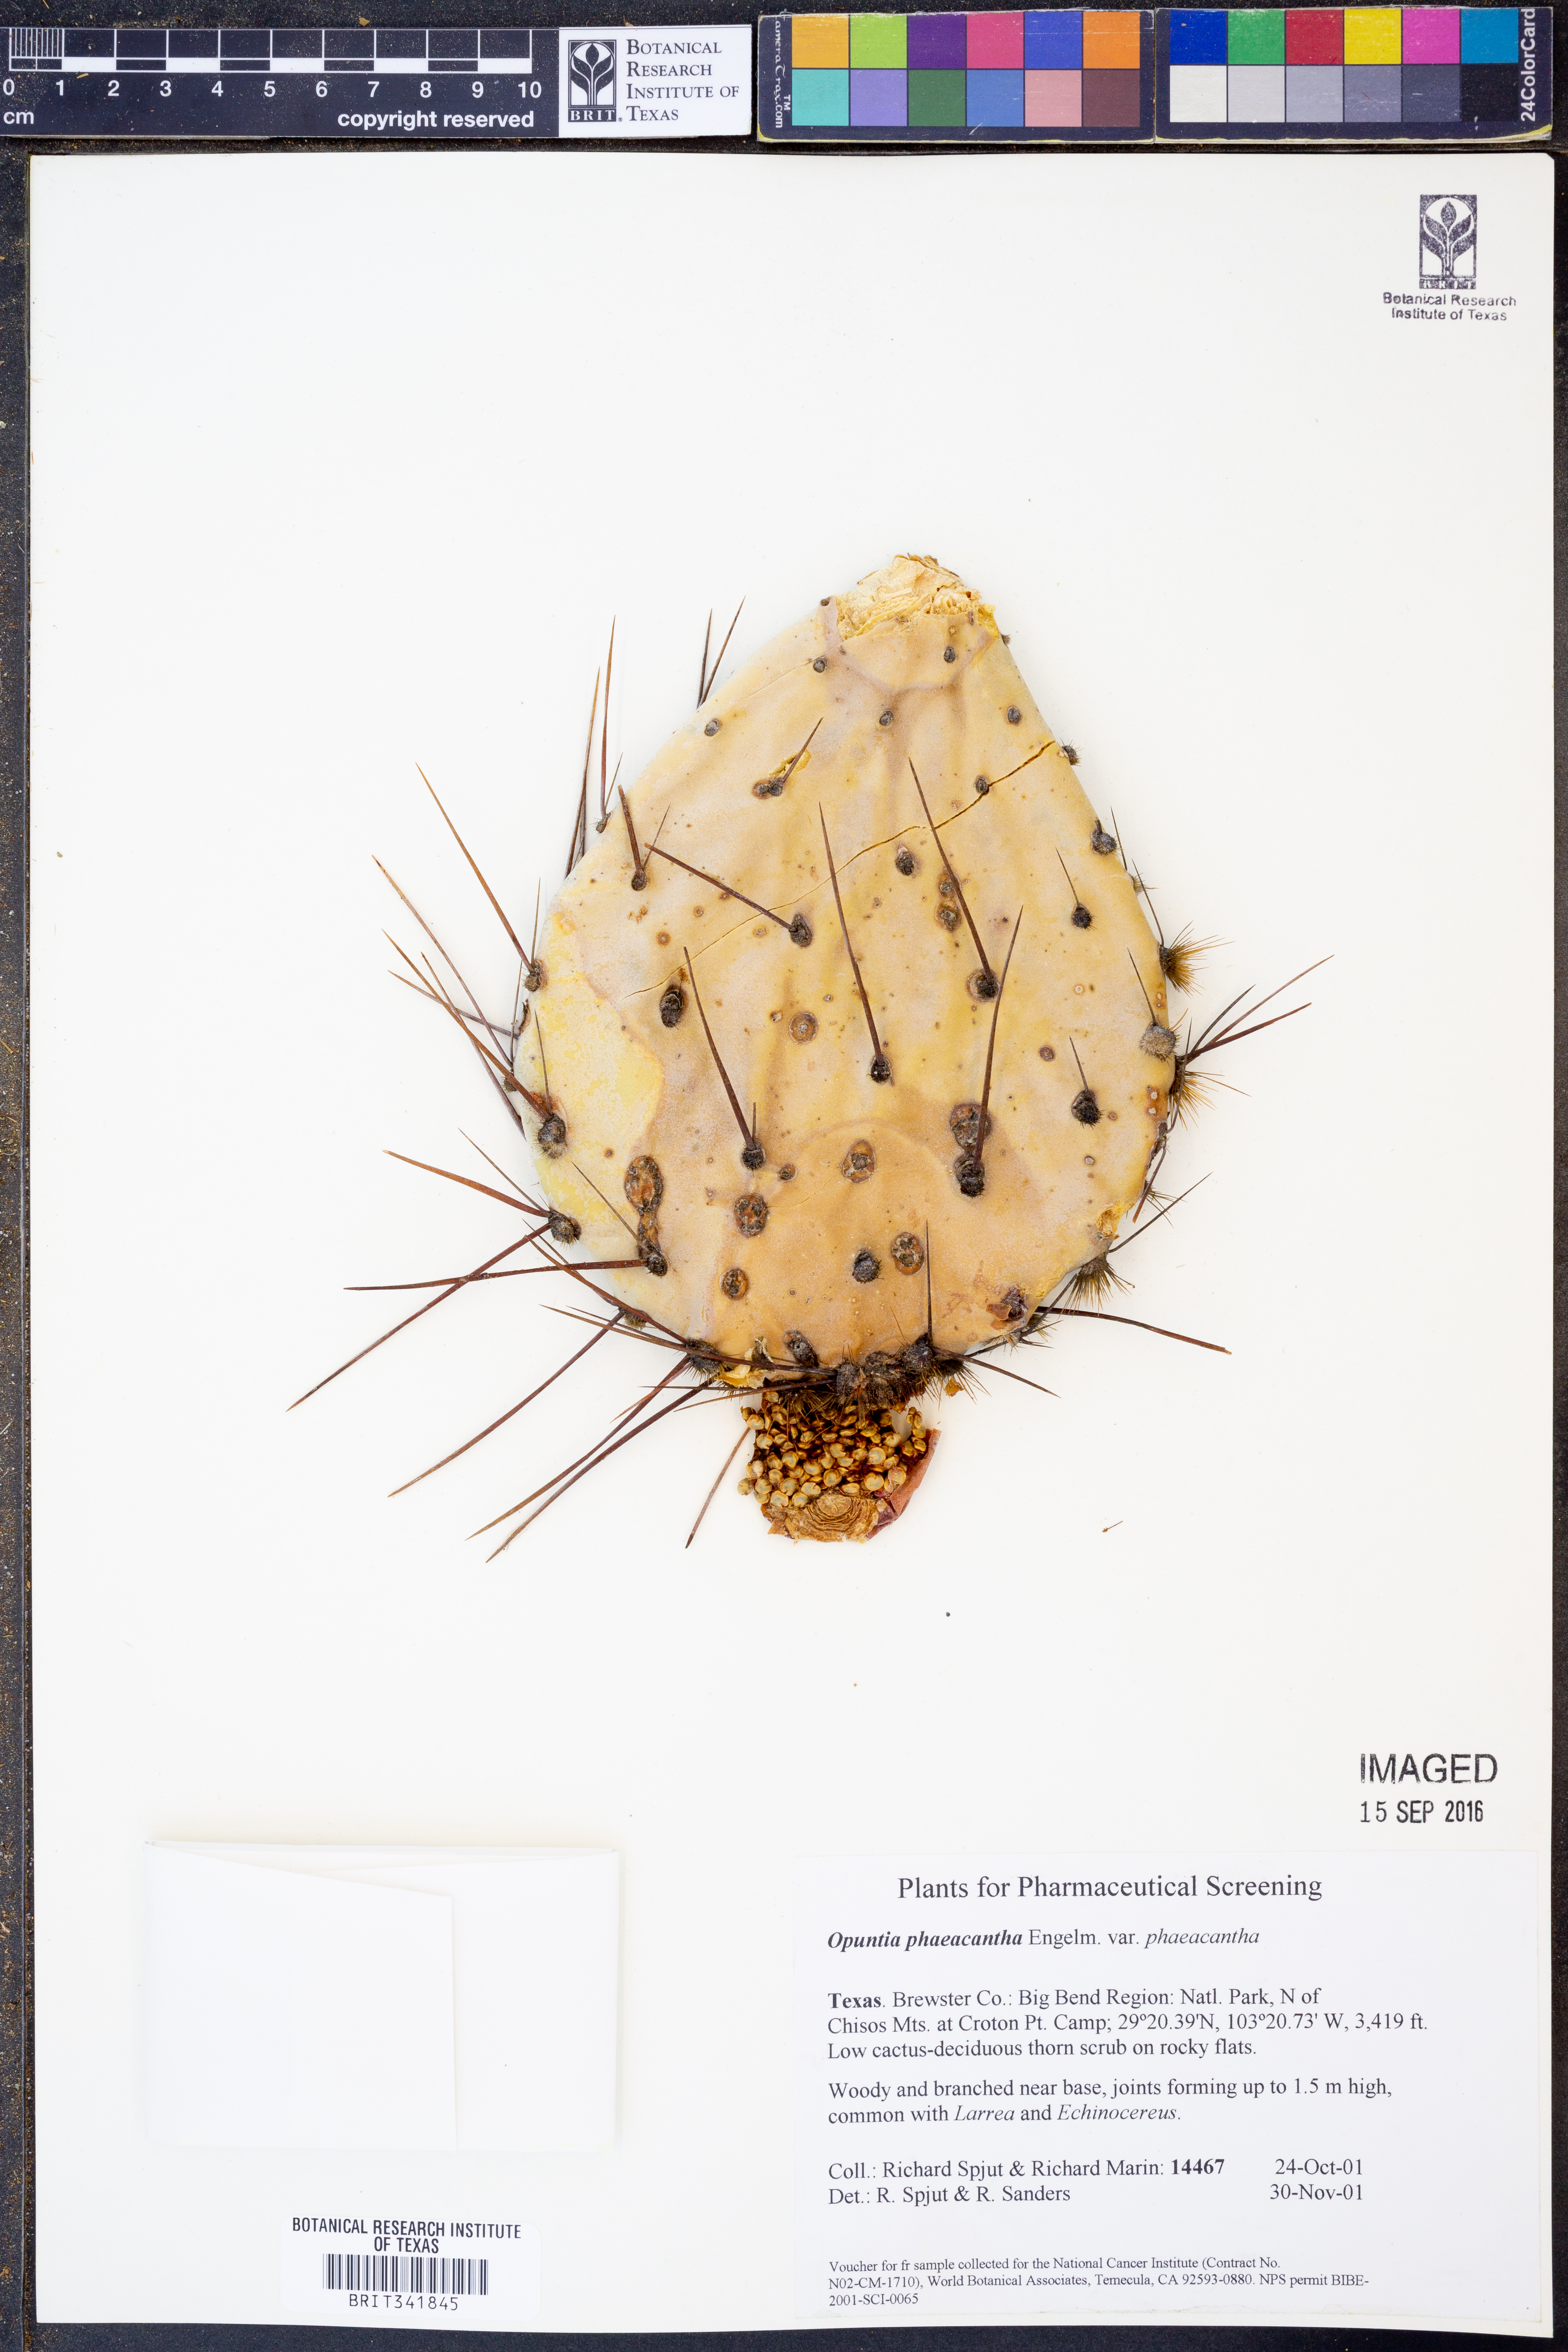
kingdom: Plantae
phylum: Tracheophyta
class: Magnoliopsida
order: Caryophyllales
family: Cactaceae
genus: Opuntia
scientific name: Opuntia phaeacantha
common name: New mexico prickly-pear
